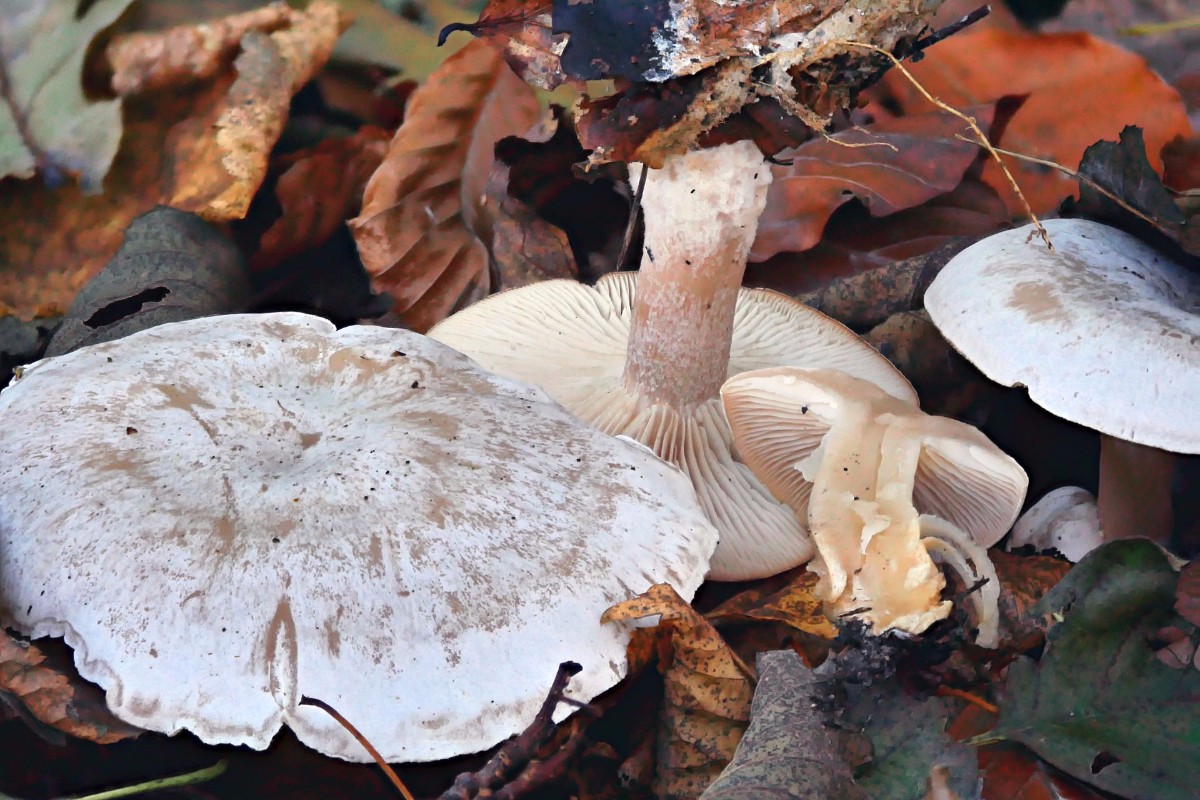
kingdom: Fungi
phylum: Basidiomycota
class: Agaricomycetes
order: Agaricales
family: Tricholomataceae
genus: Clitocybe
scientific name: Clitocybe phyllophila
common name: løv-tragthat
